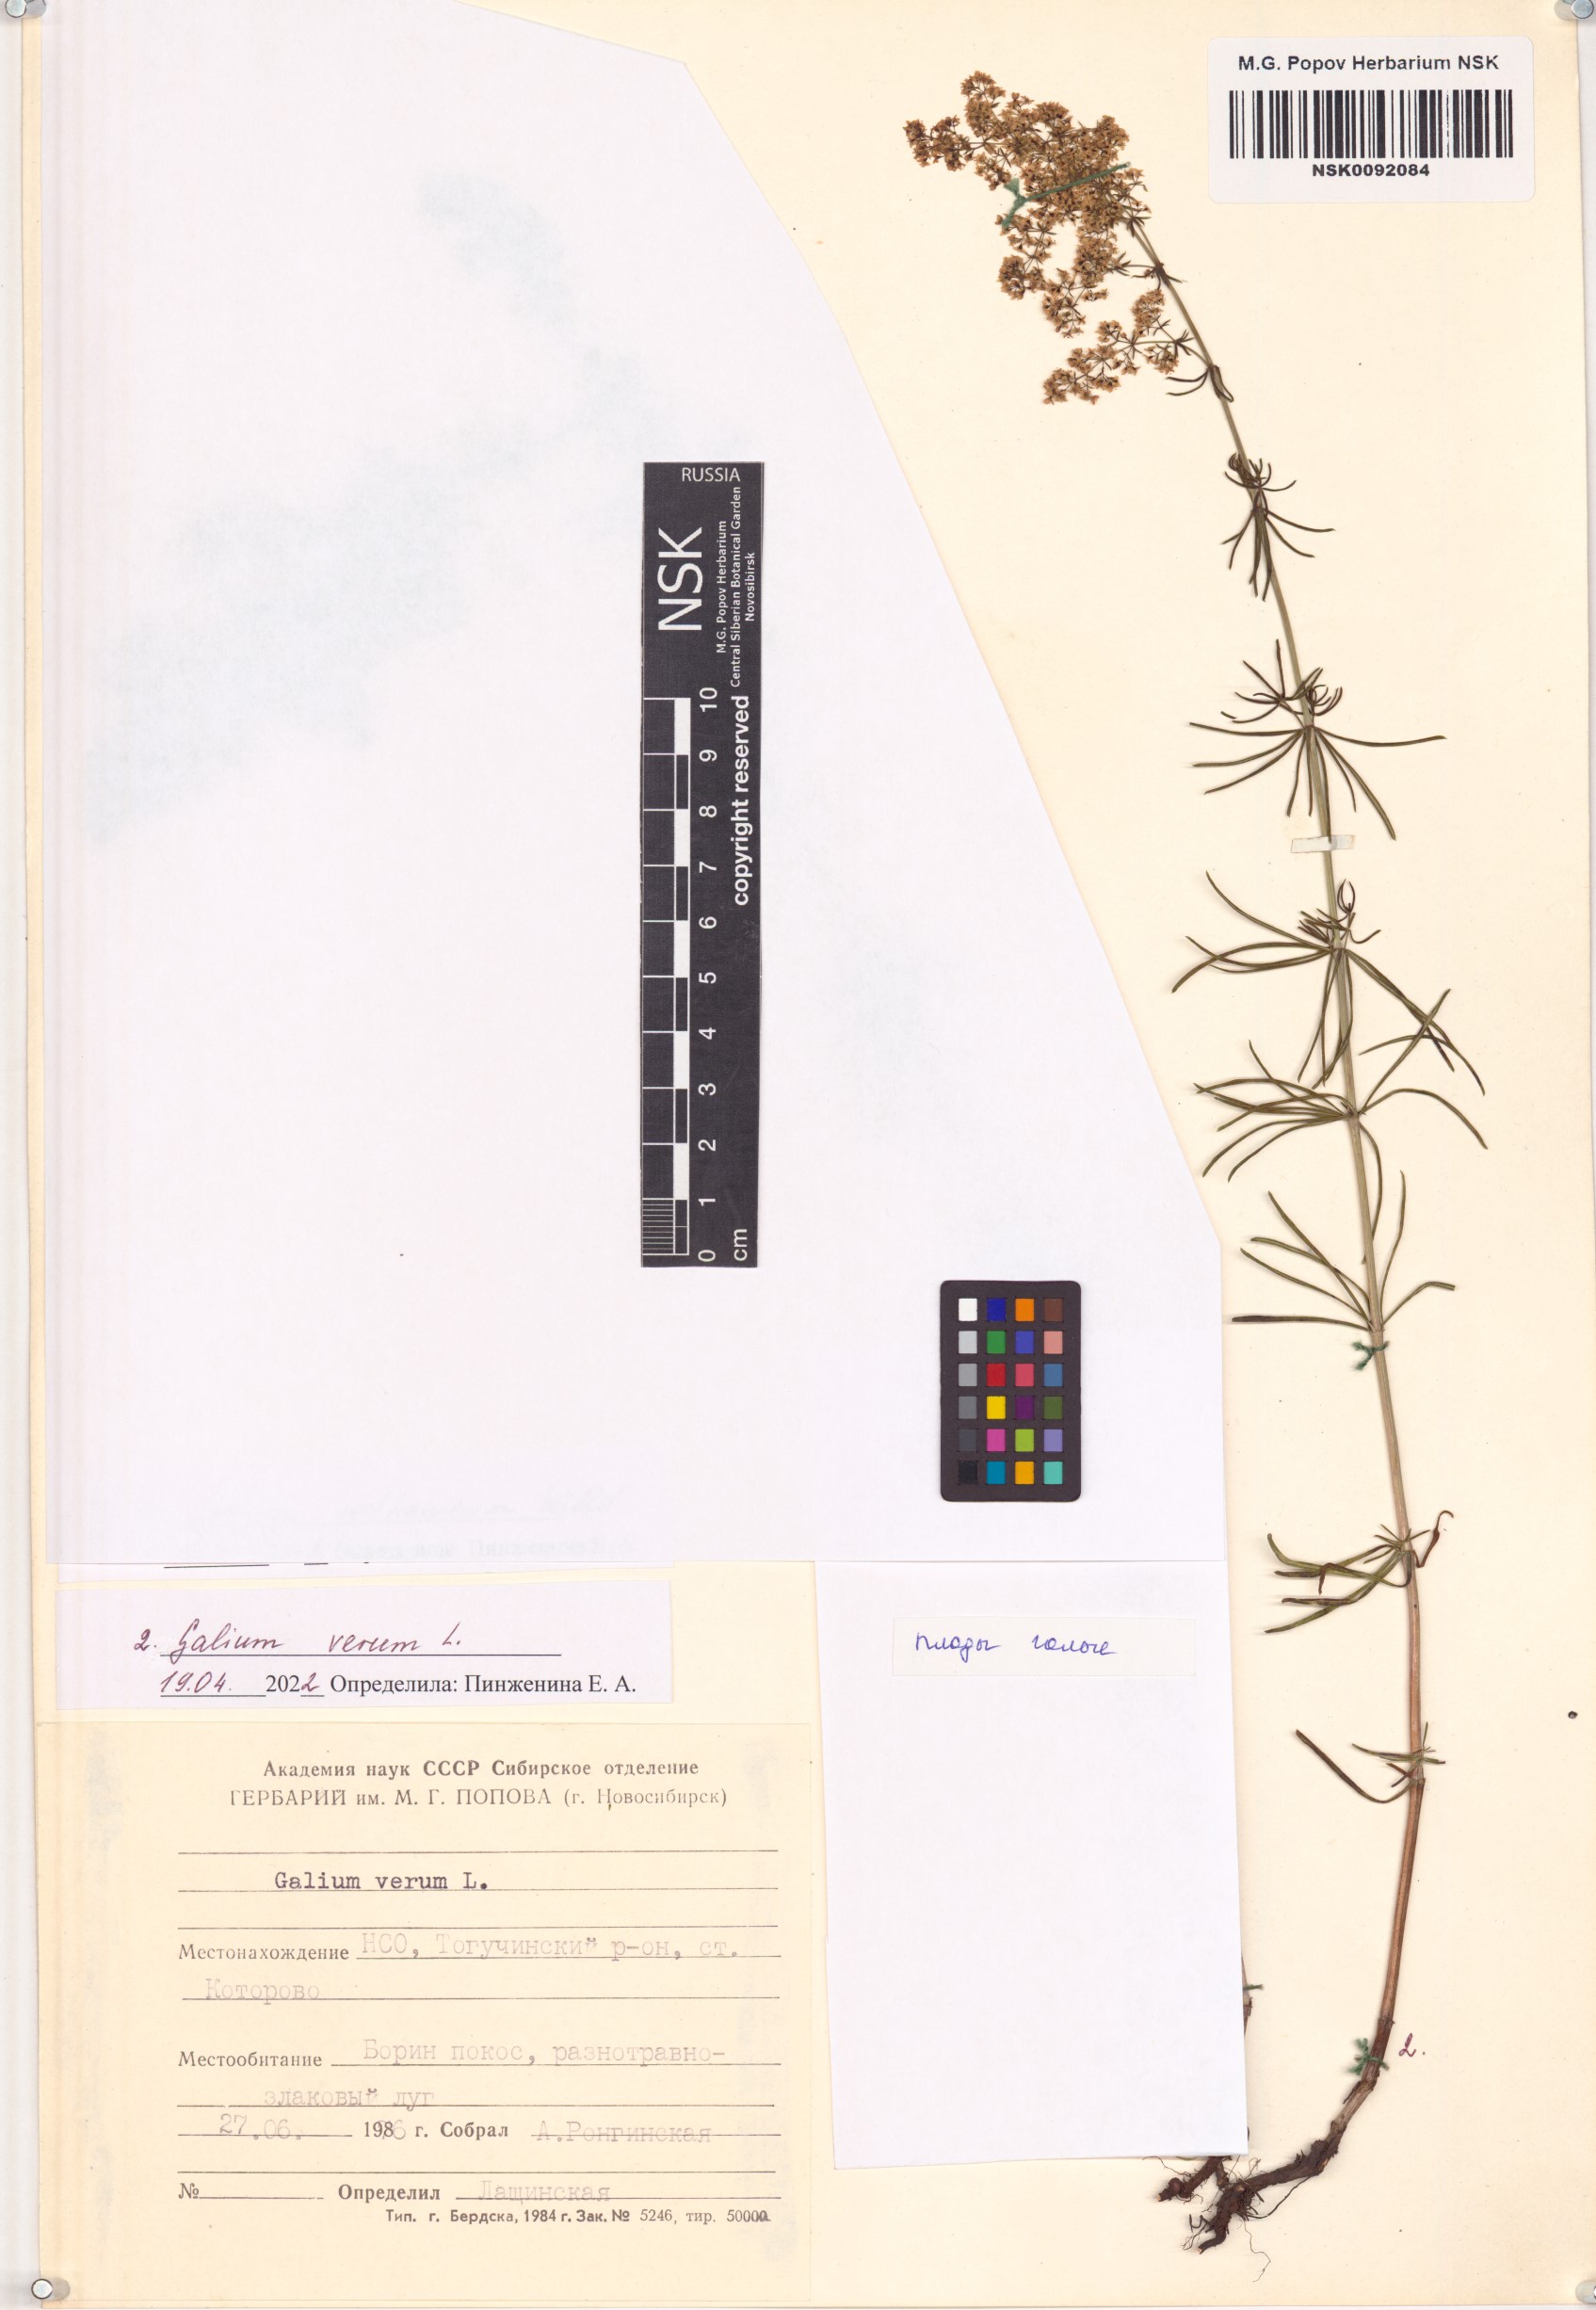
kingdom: Plantae
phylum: Tracheophyta
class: Magnoliopsida
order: Gentianales
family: Rubiaceae
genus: Galium
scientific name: Galium verum
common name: Lady's bedstraw
